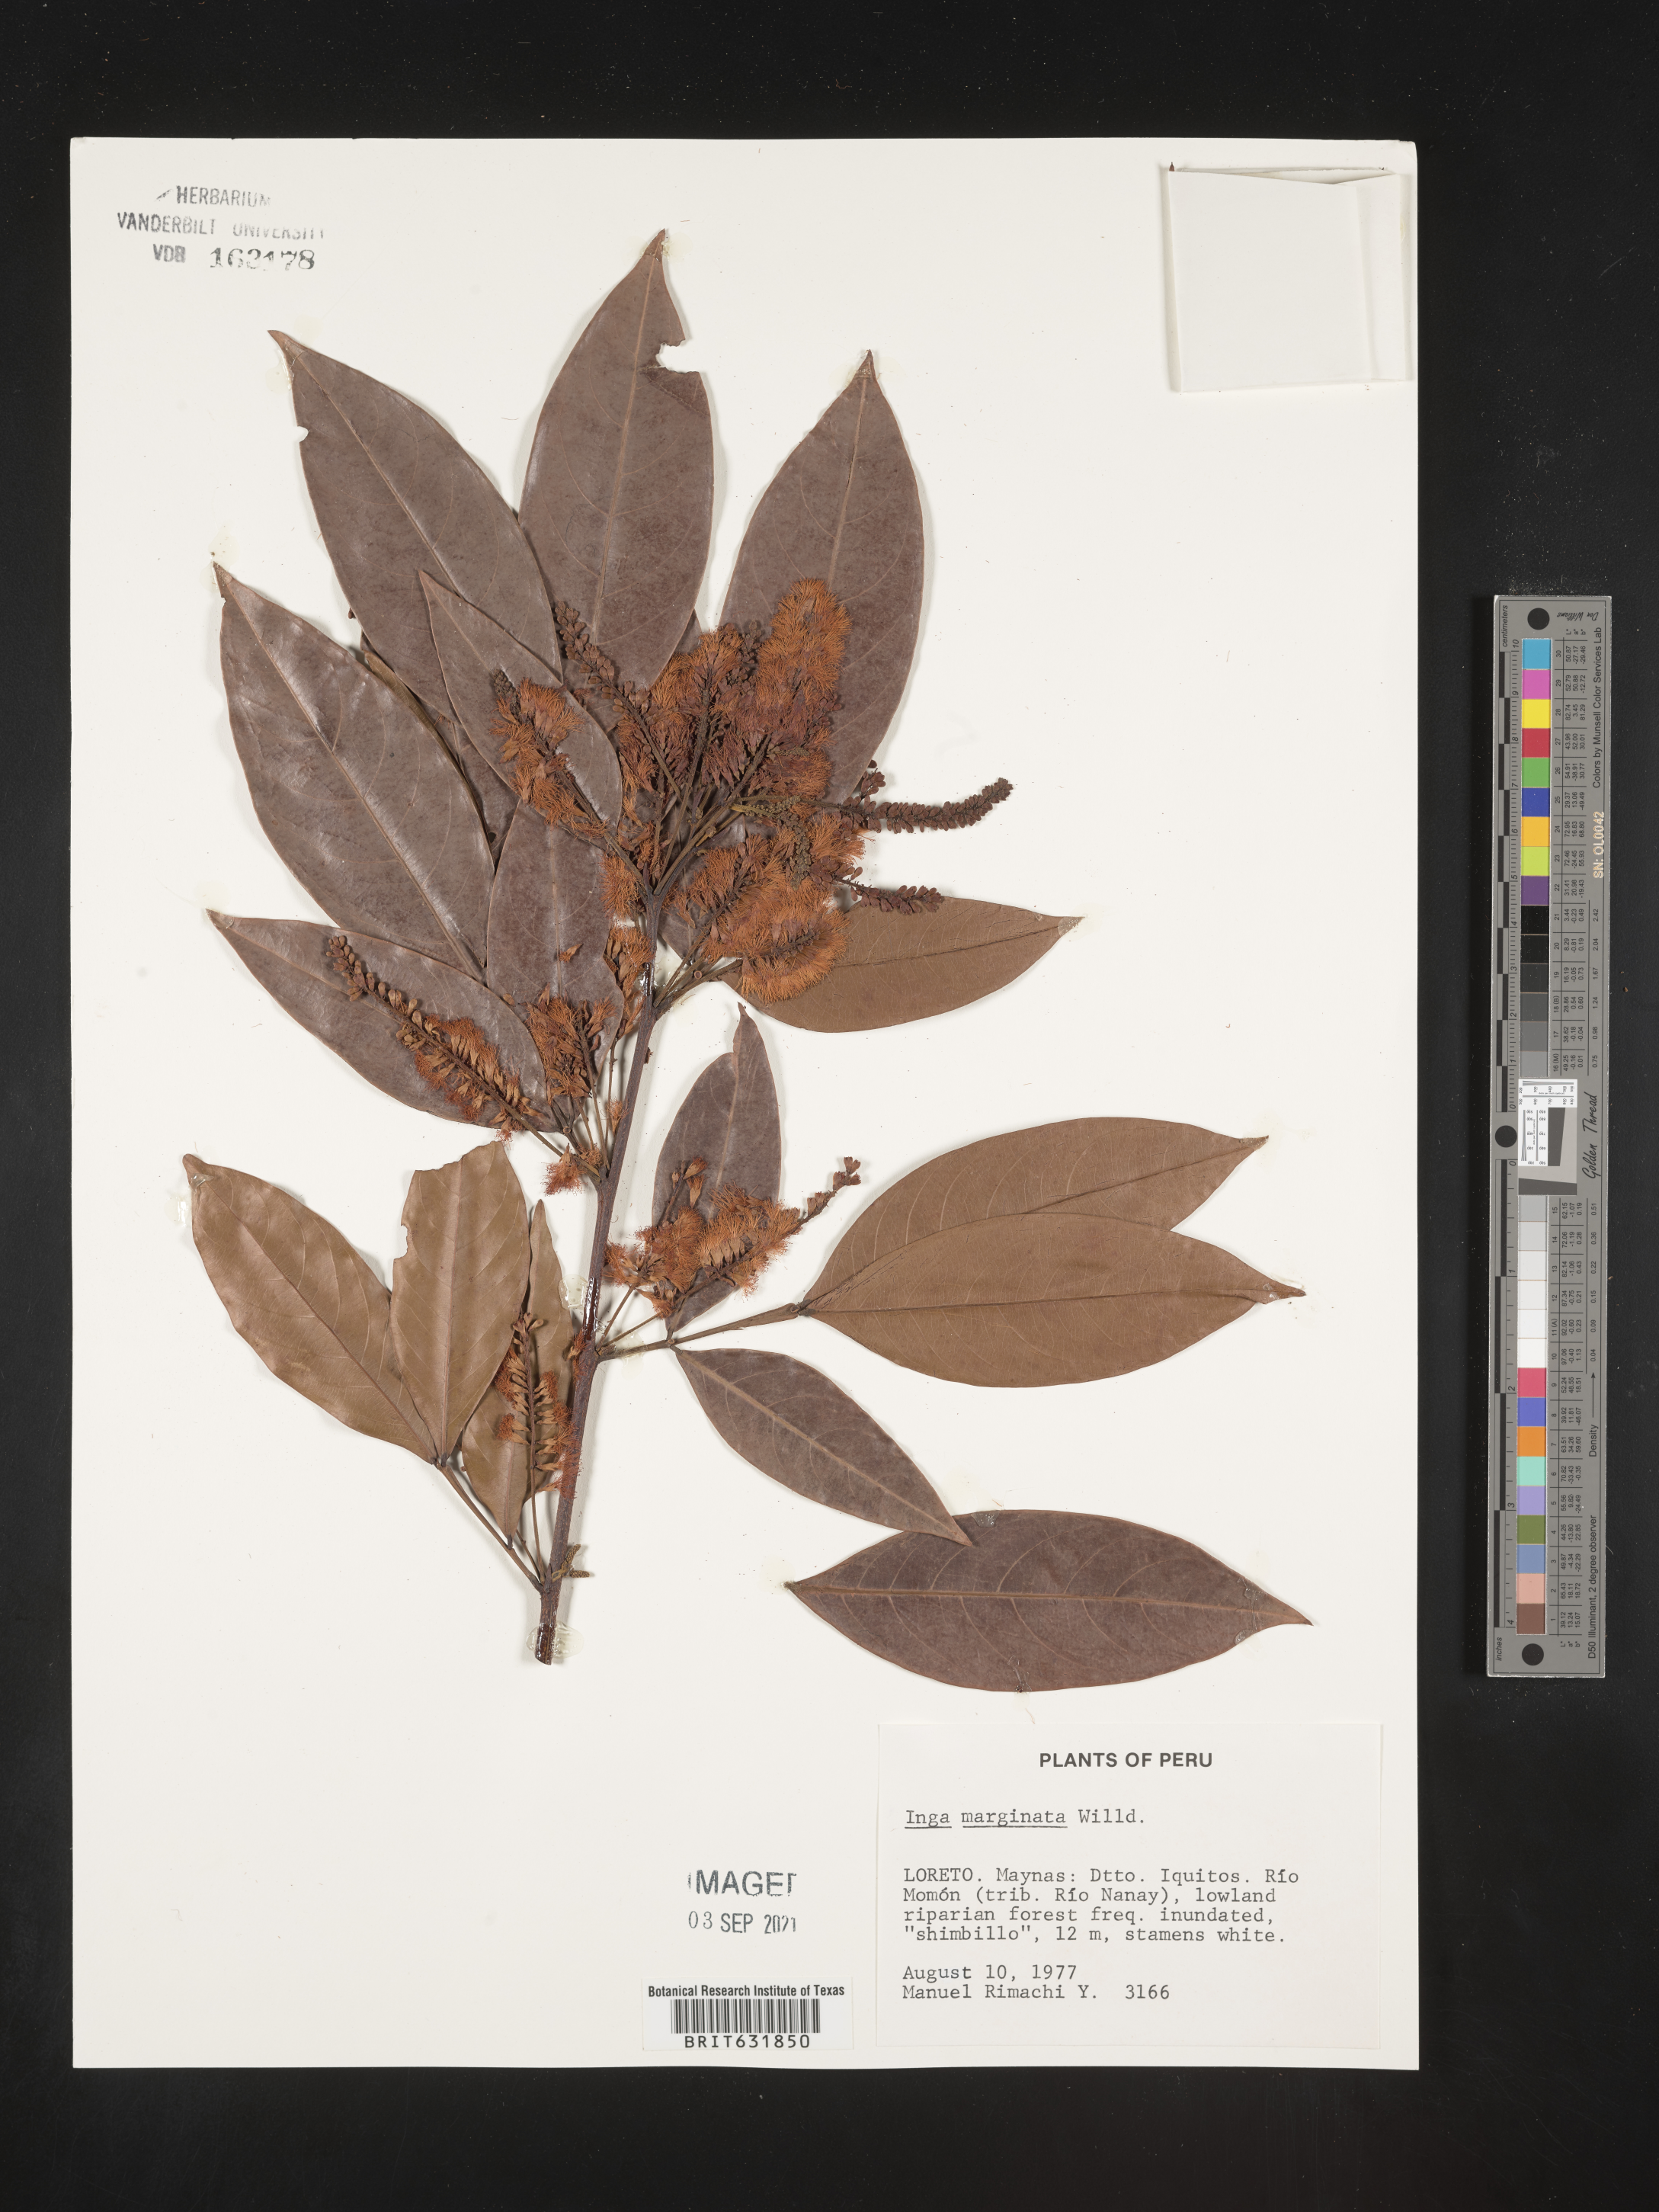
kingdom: Plantae
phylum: Tracheophyta
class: Magnoliopsida
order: Fabales
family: Fabaceae
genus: Inga
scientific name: Inga
